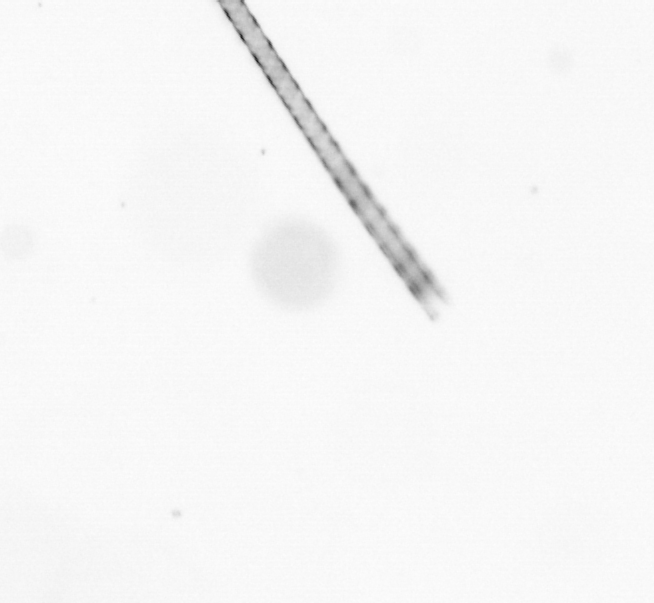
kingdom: Chromista
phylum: Ochrophyta
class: Bacillariophyceae
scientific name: Bacillariophyceae
